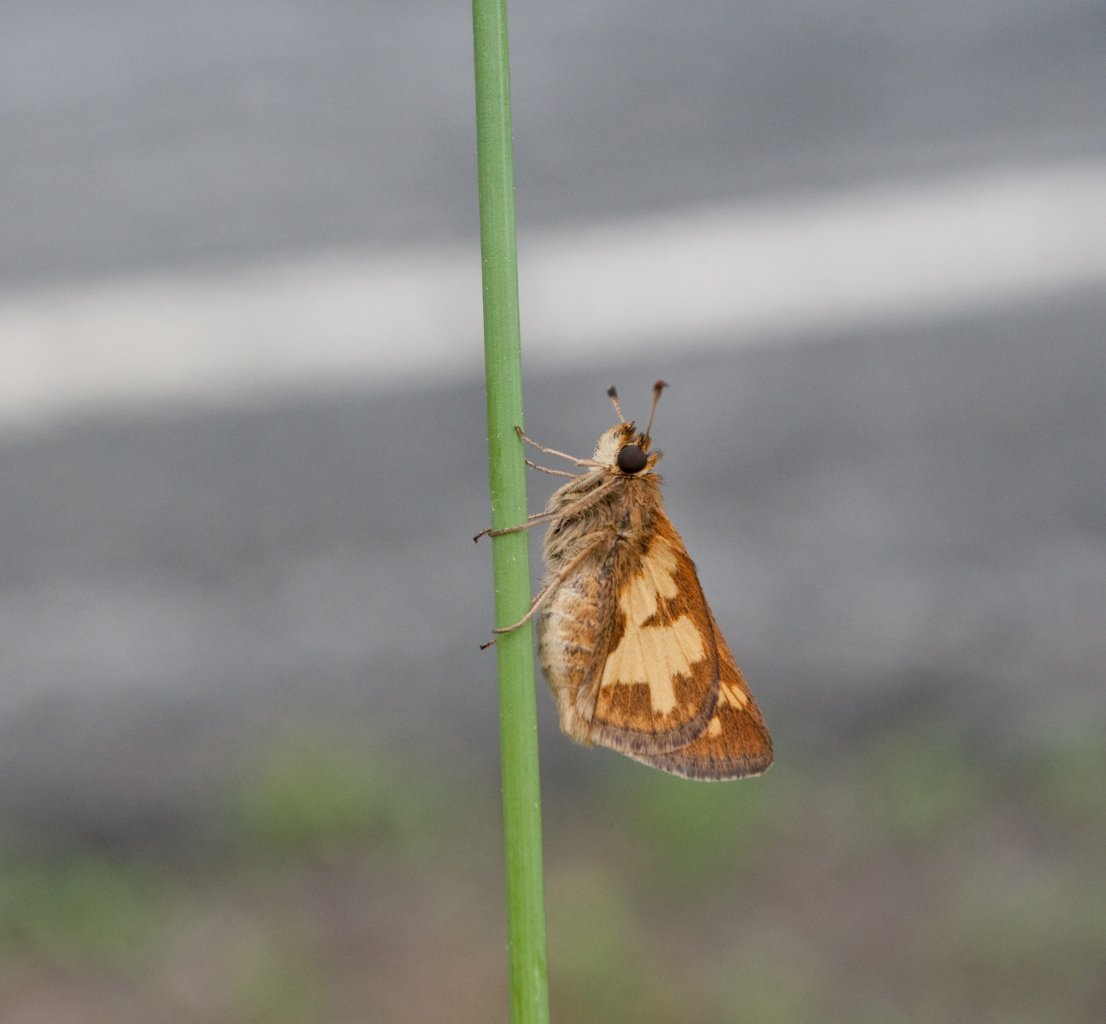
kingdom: Animalia
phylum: Arthropoda
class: Insecta
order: Lepidoptera
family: Hesperiidae
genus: Polites
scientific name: Polites coras
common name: Peck's Skipper
